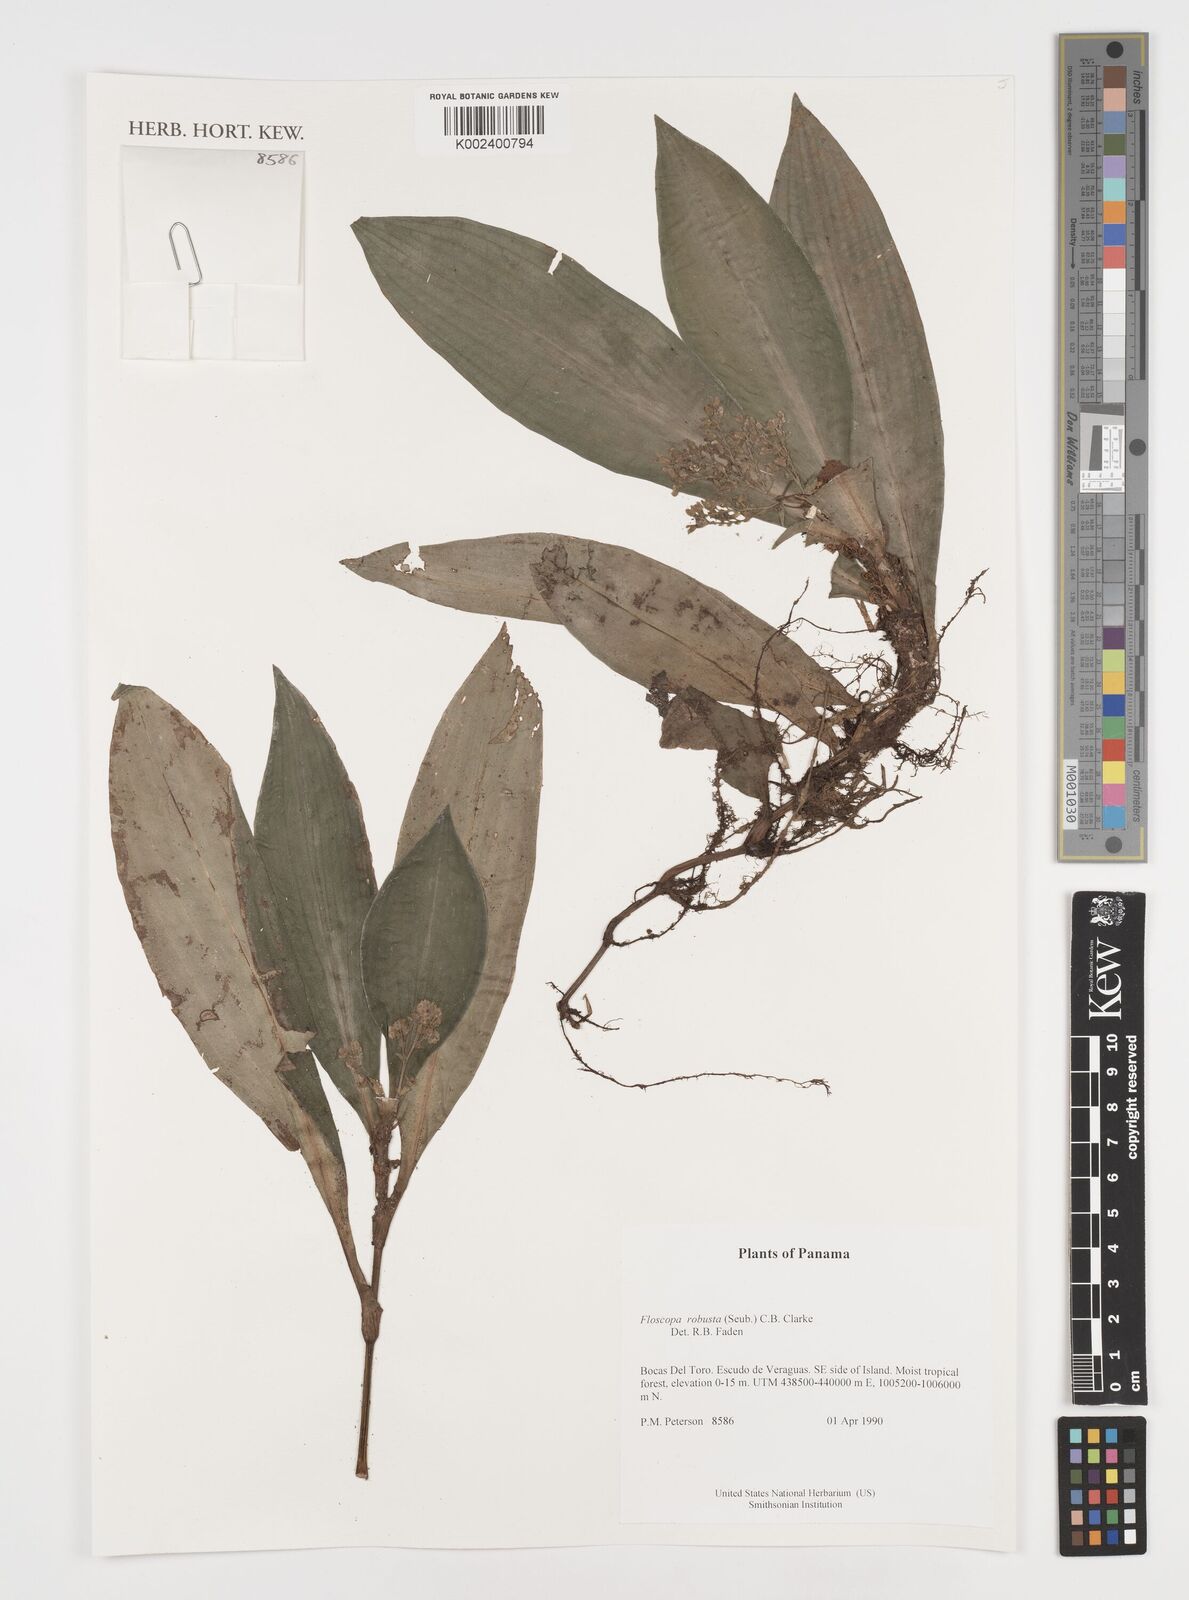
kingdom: Plantae
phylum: Tracheophyta
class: Liliopsida
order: Commelinales
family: Commelinaceae
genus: Floscopa
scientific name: Floscopa robusta
